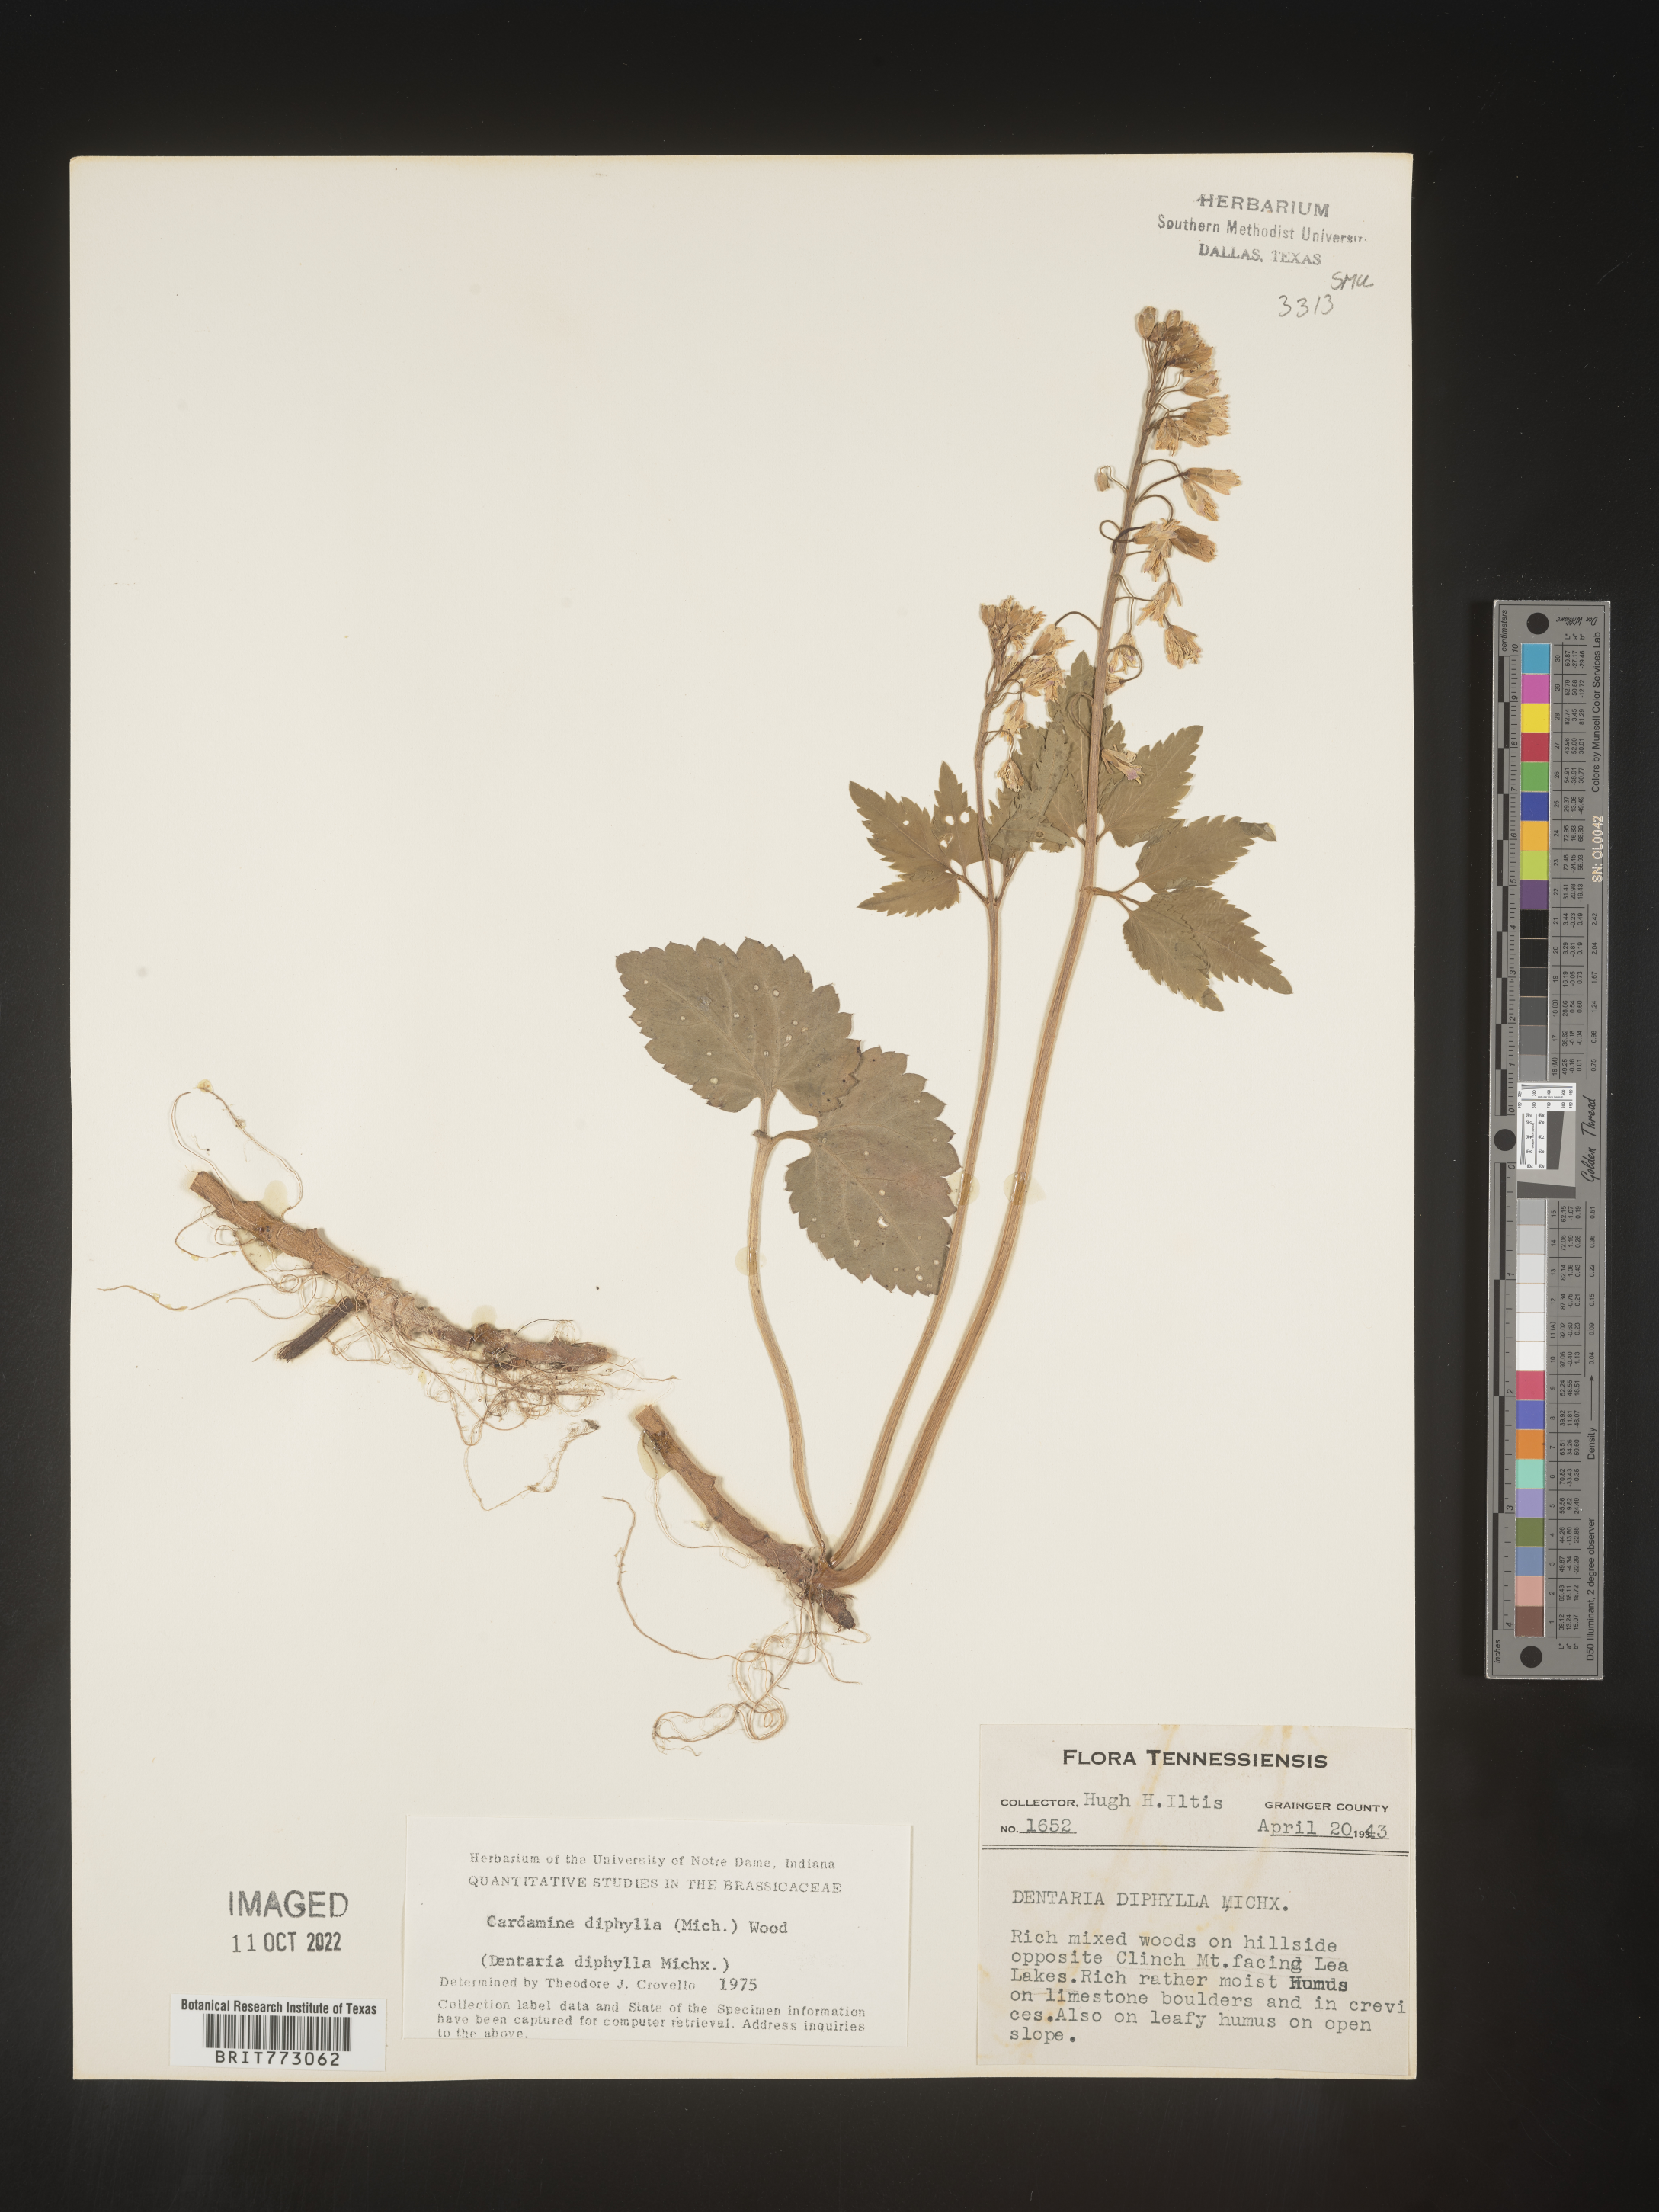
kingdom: Plantae
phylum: Tracheophyta
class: Magnoliopsida
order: Brassicales
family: Brassicaceae
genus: Cardamine
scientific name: Cardamine diphylla
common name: Broad-leaved toothwort
